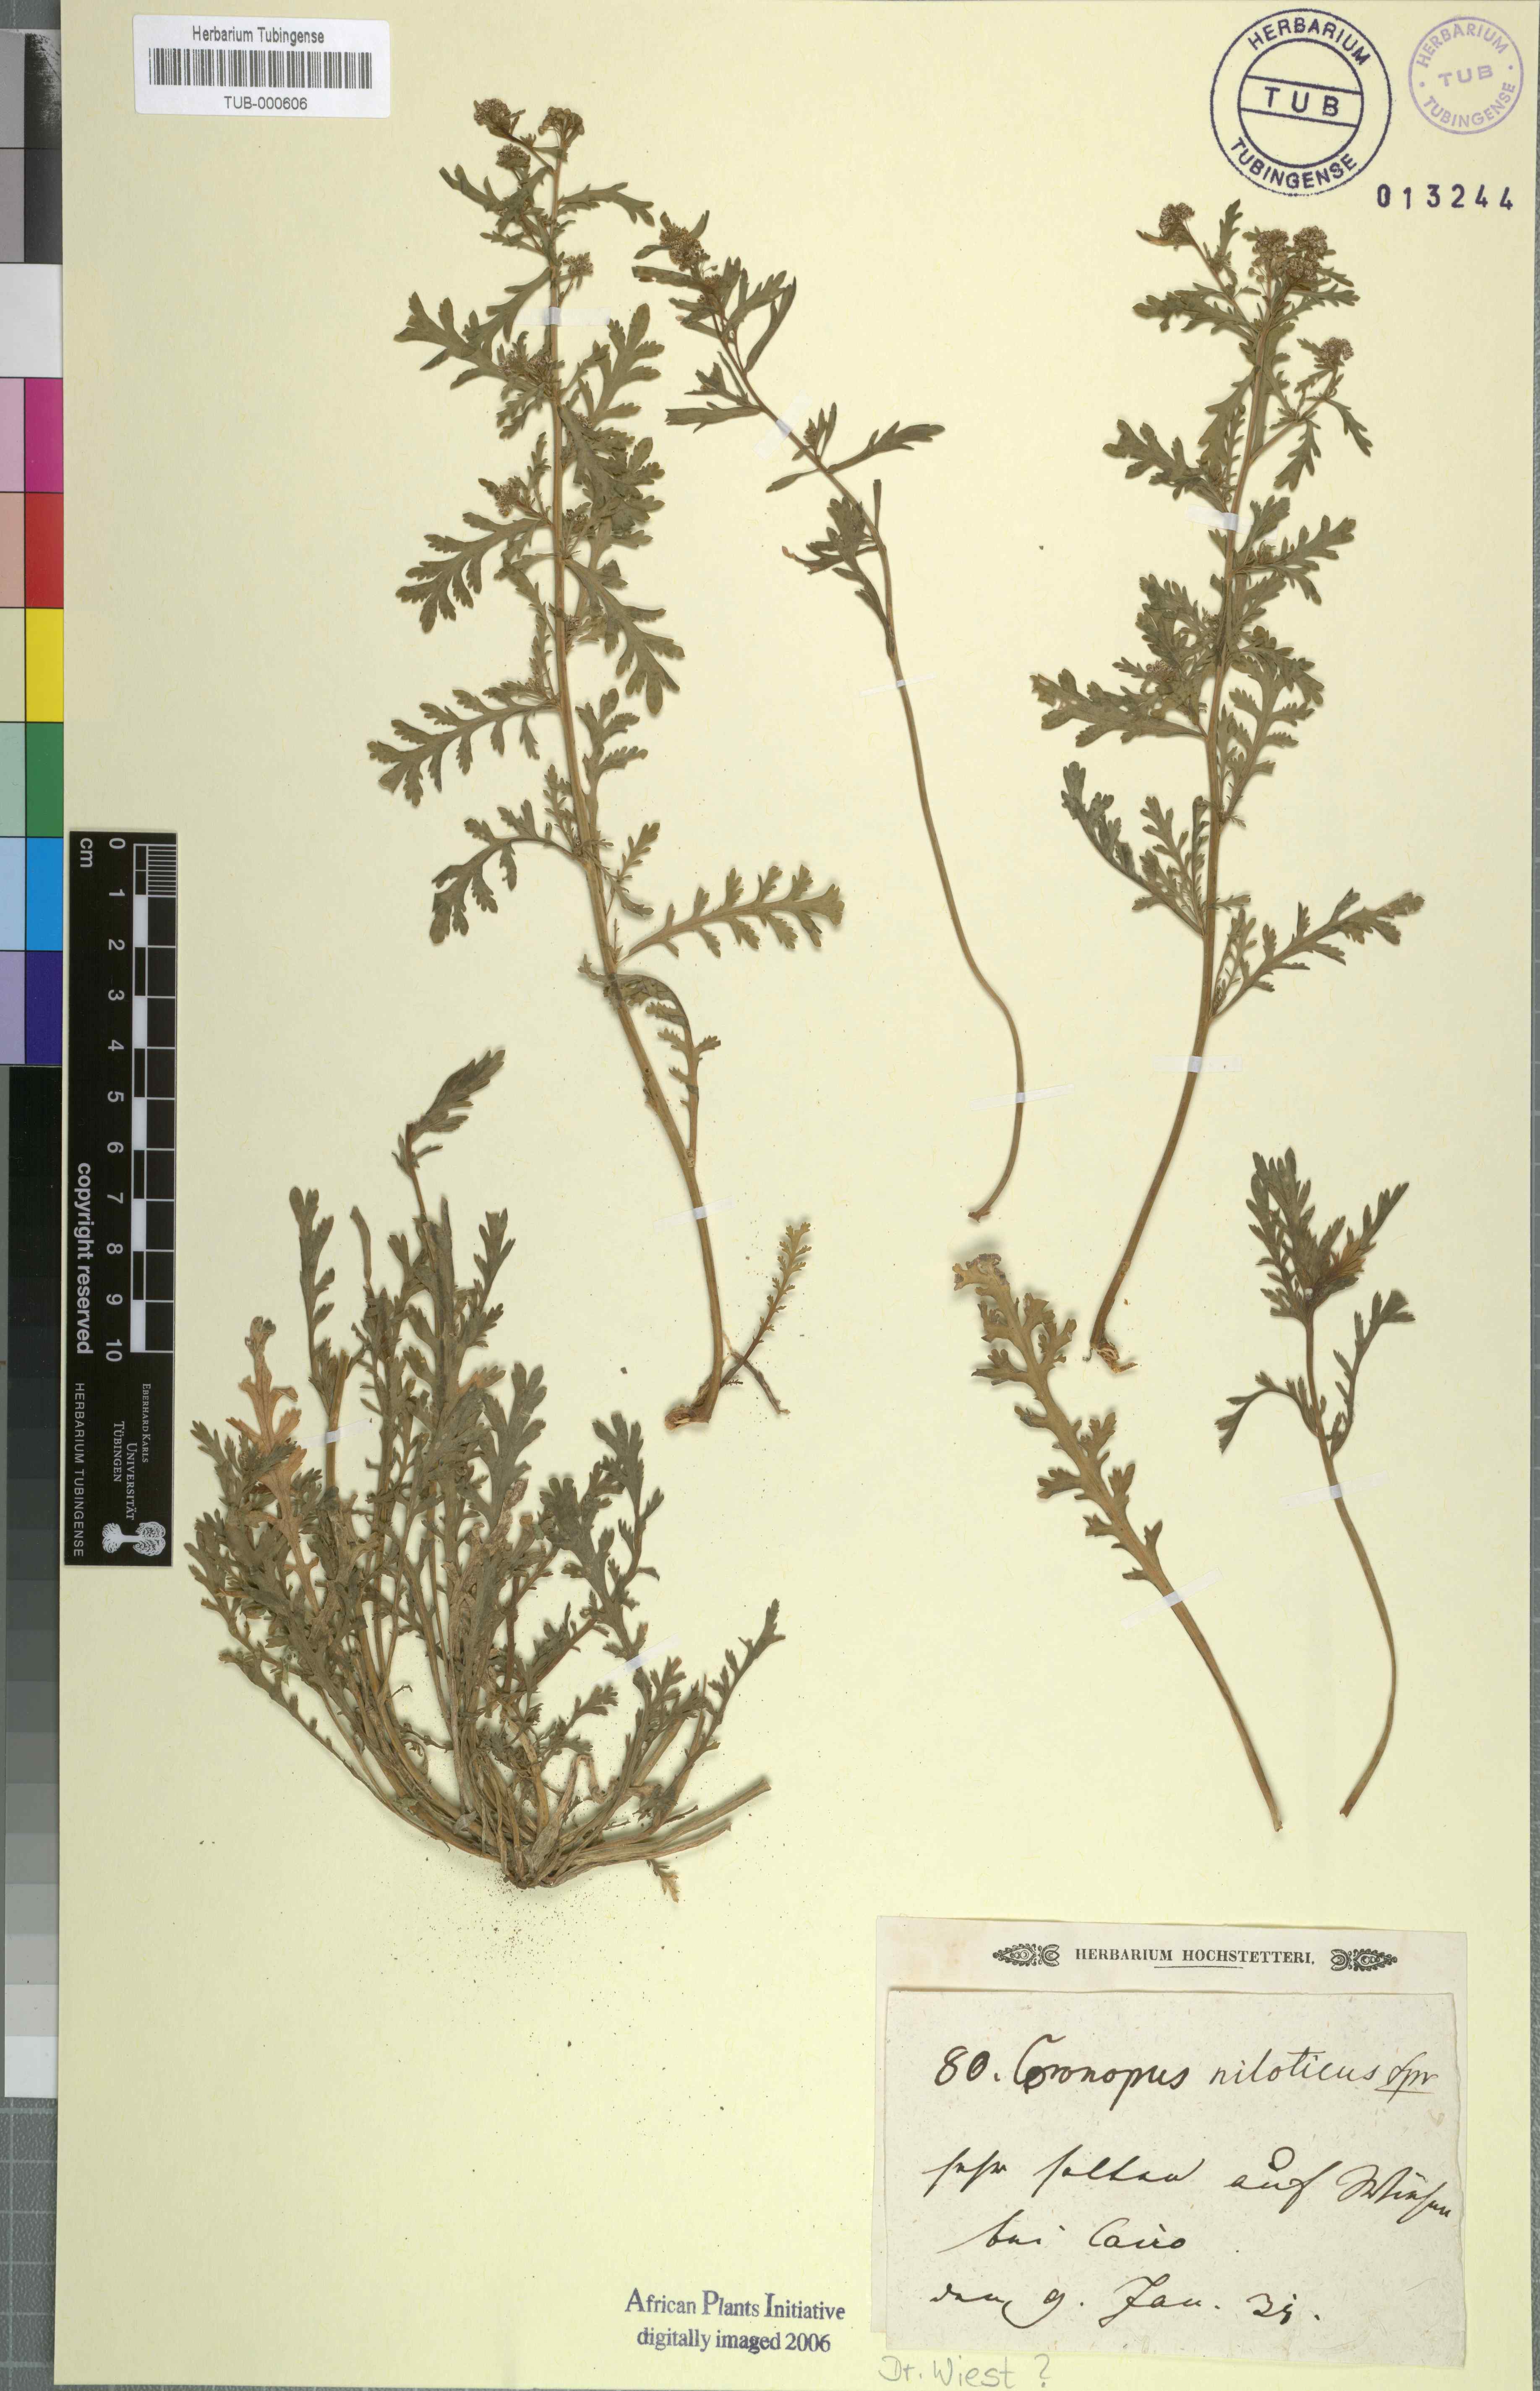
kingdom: Plantae
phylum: Tracheophyta
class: Magnoliopsida
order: Brassicales
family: Brassicaceae
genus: Lepidium
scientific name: Lepidium niloticum
